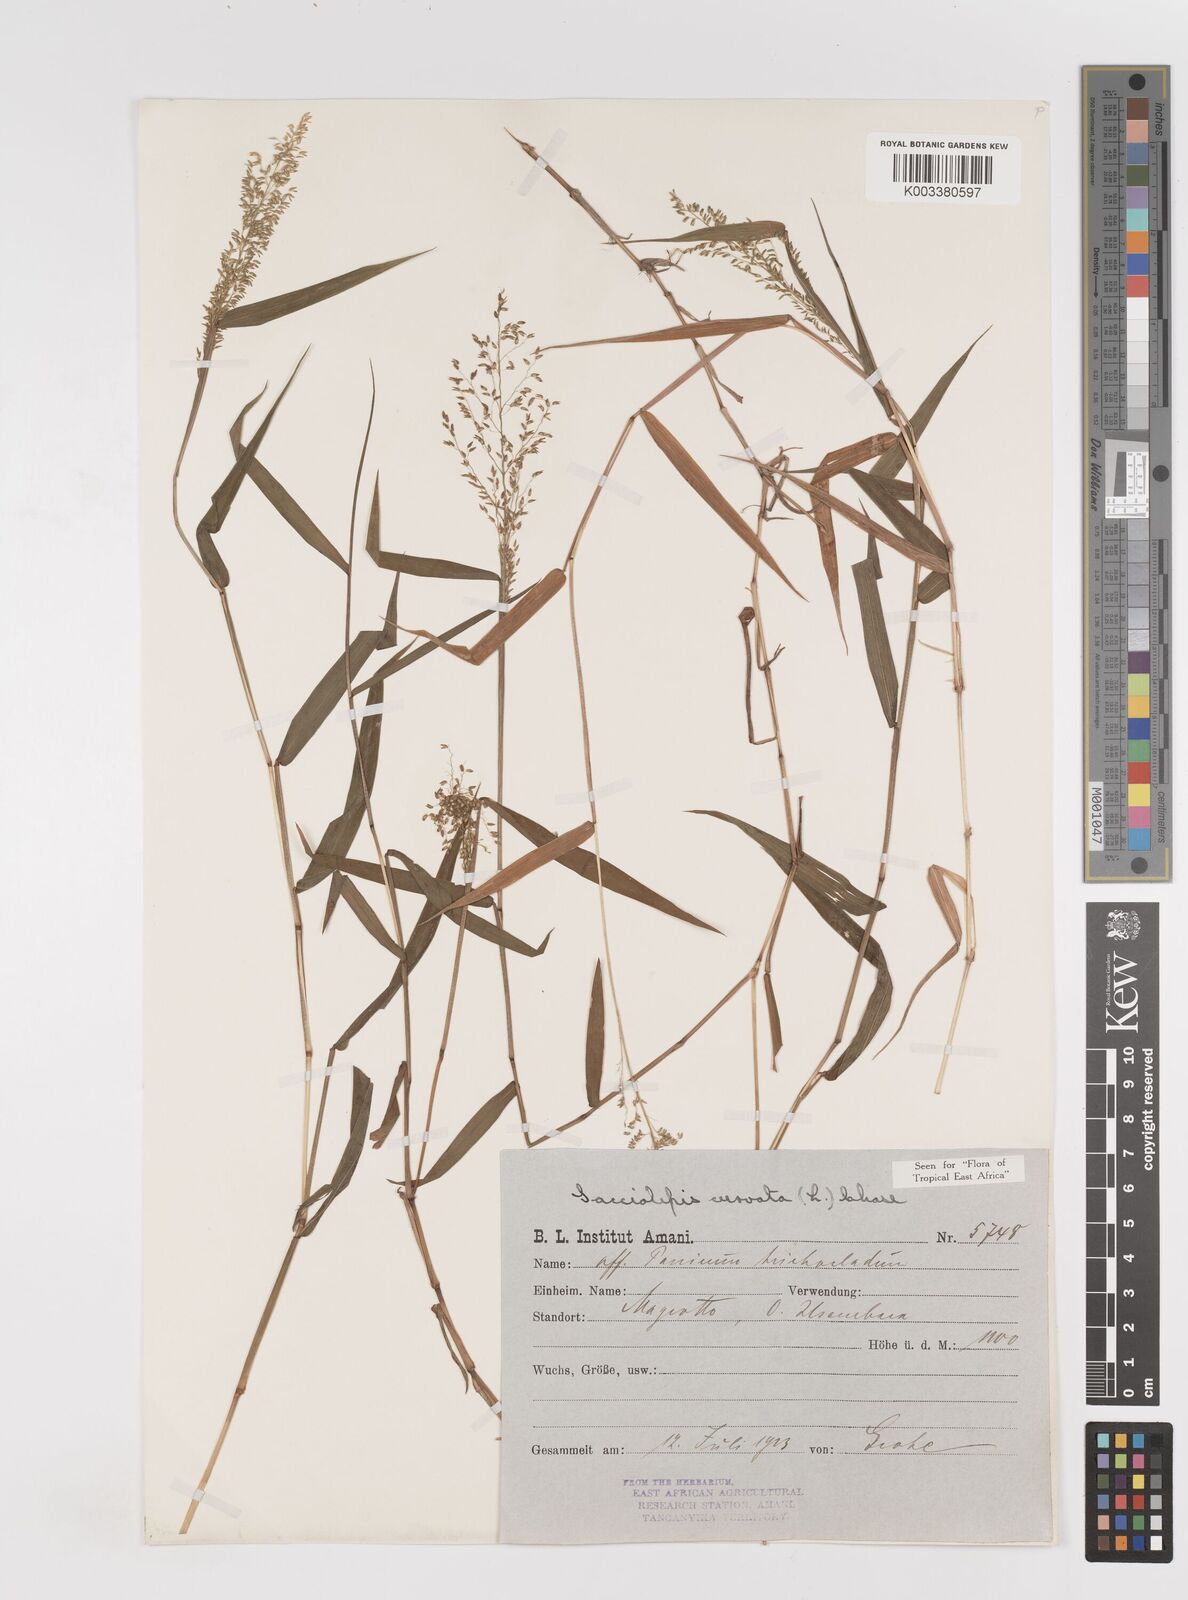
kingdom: Plantae
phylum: Tracheophyta
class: Liliopsida
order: Poales
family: Poaceae
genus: Sacciolepis
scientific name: Sacciolepis curvata
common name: Forest hood grass
